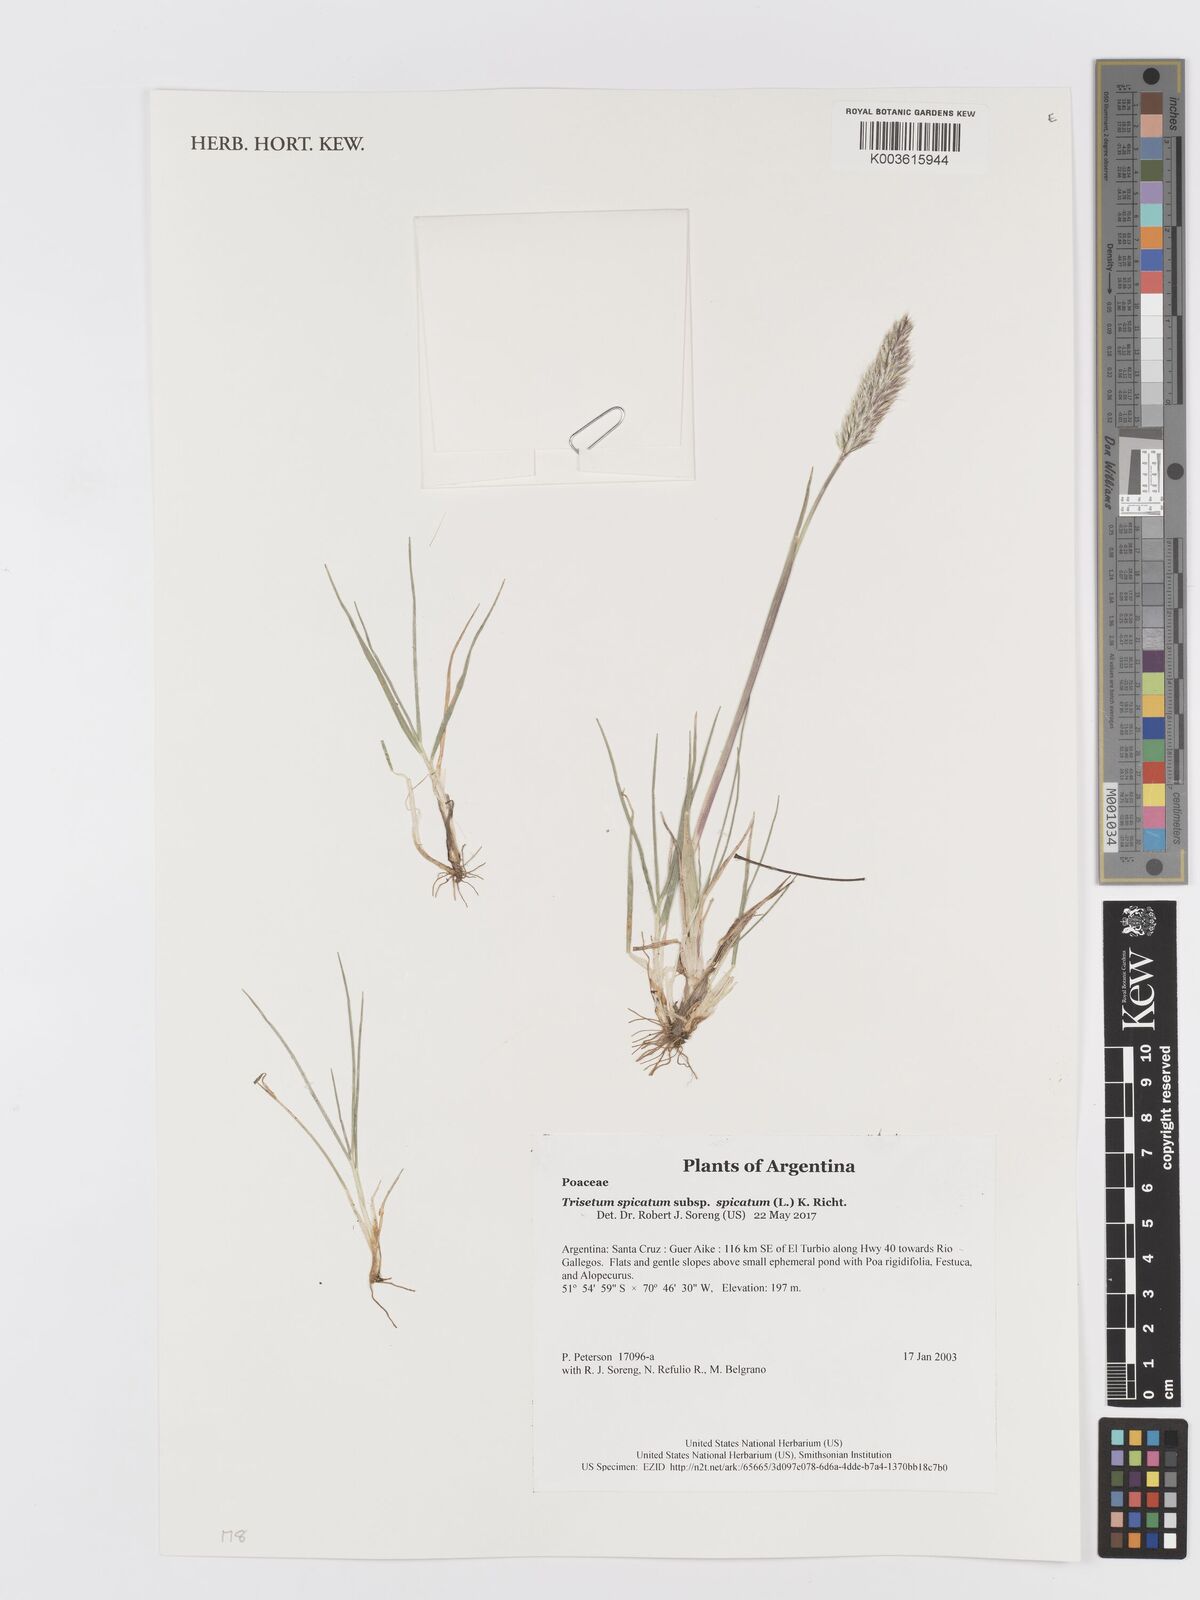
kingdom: Plantae
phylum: Tracheophyta
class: Liliopsida
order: Poales
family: Poaceae
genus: Koeleria
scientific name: Koeleria spicata
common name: Mountain trisetum
